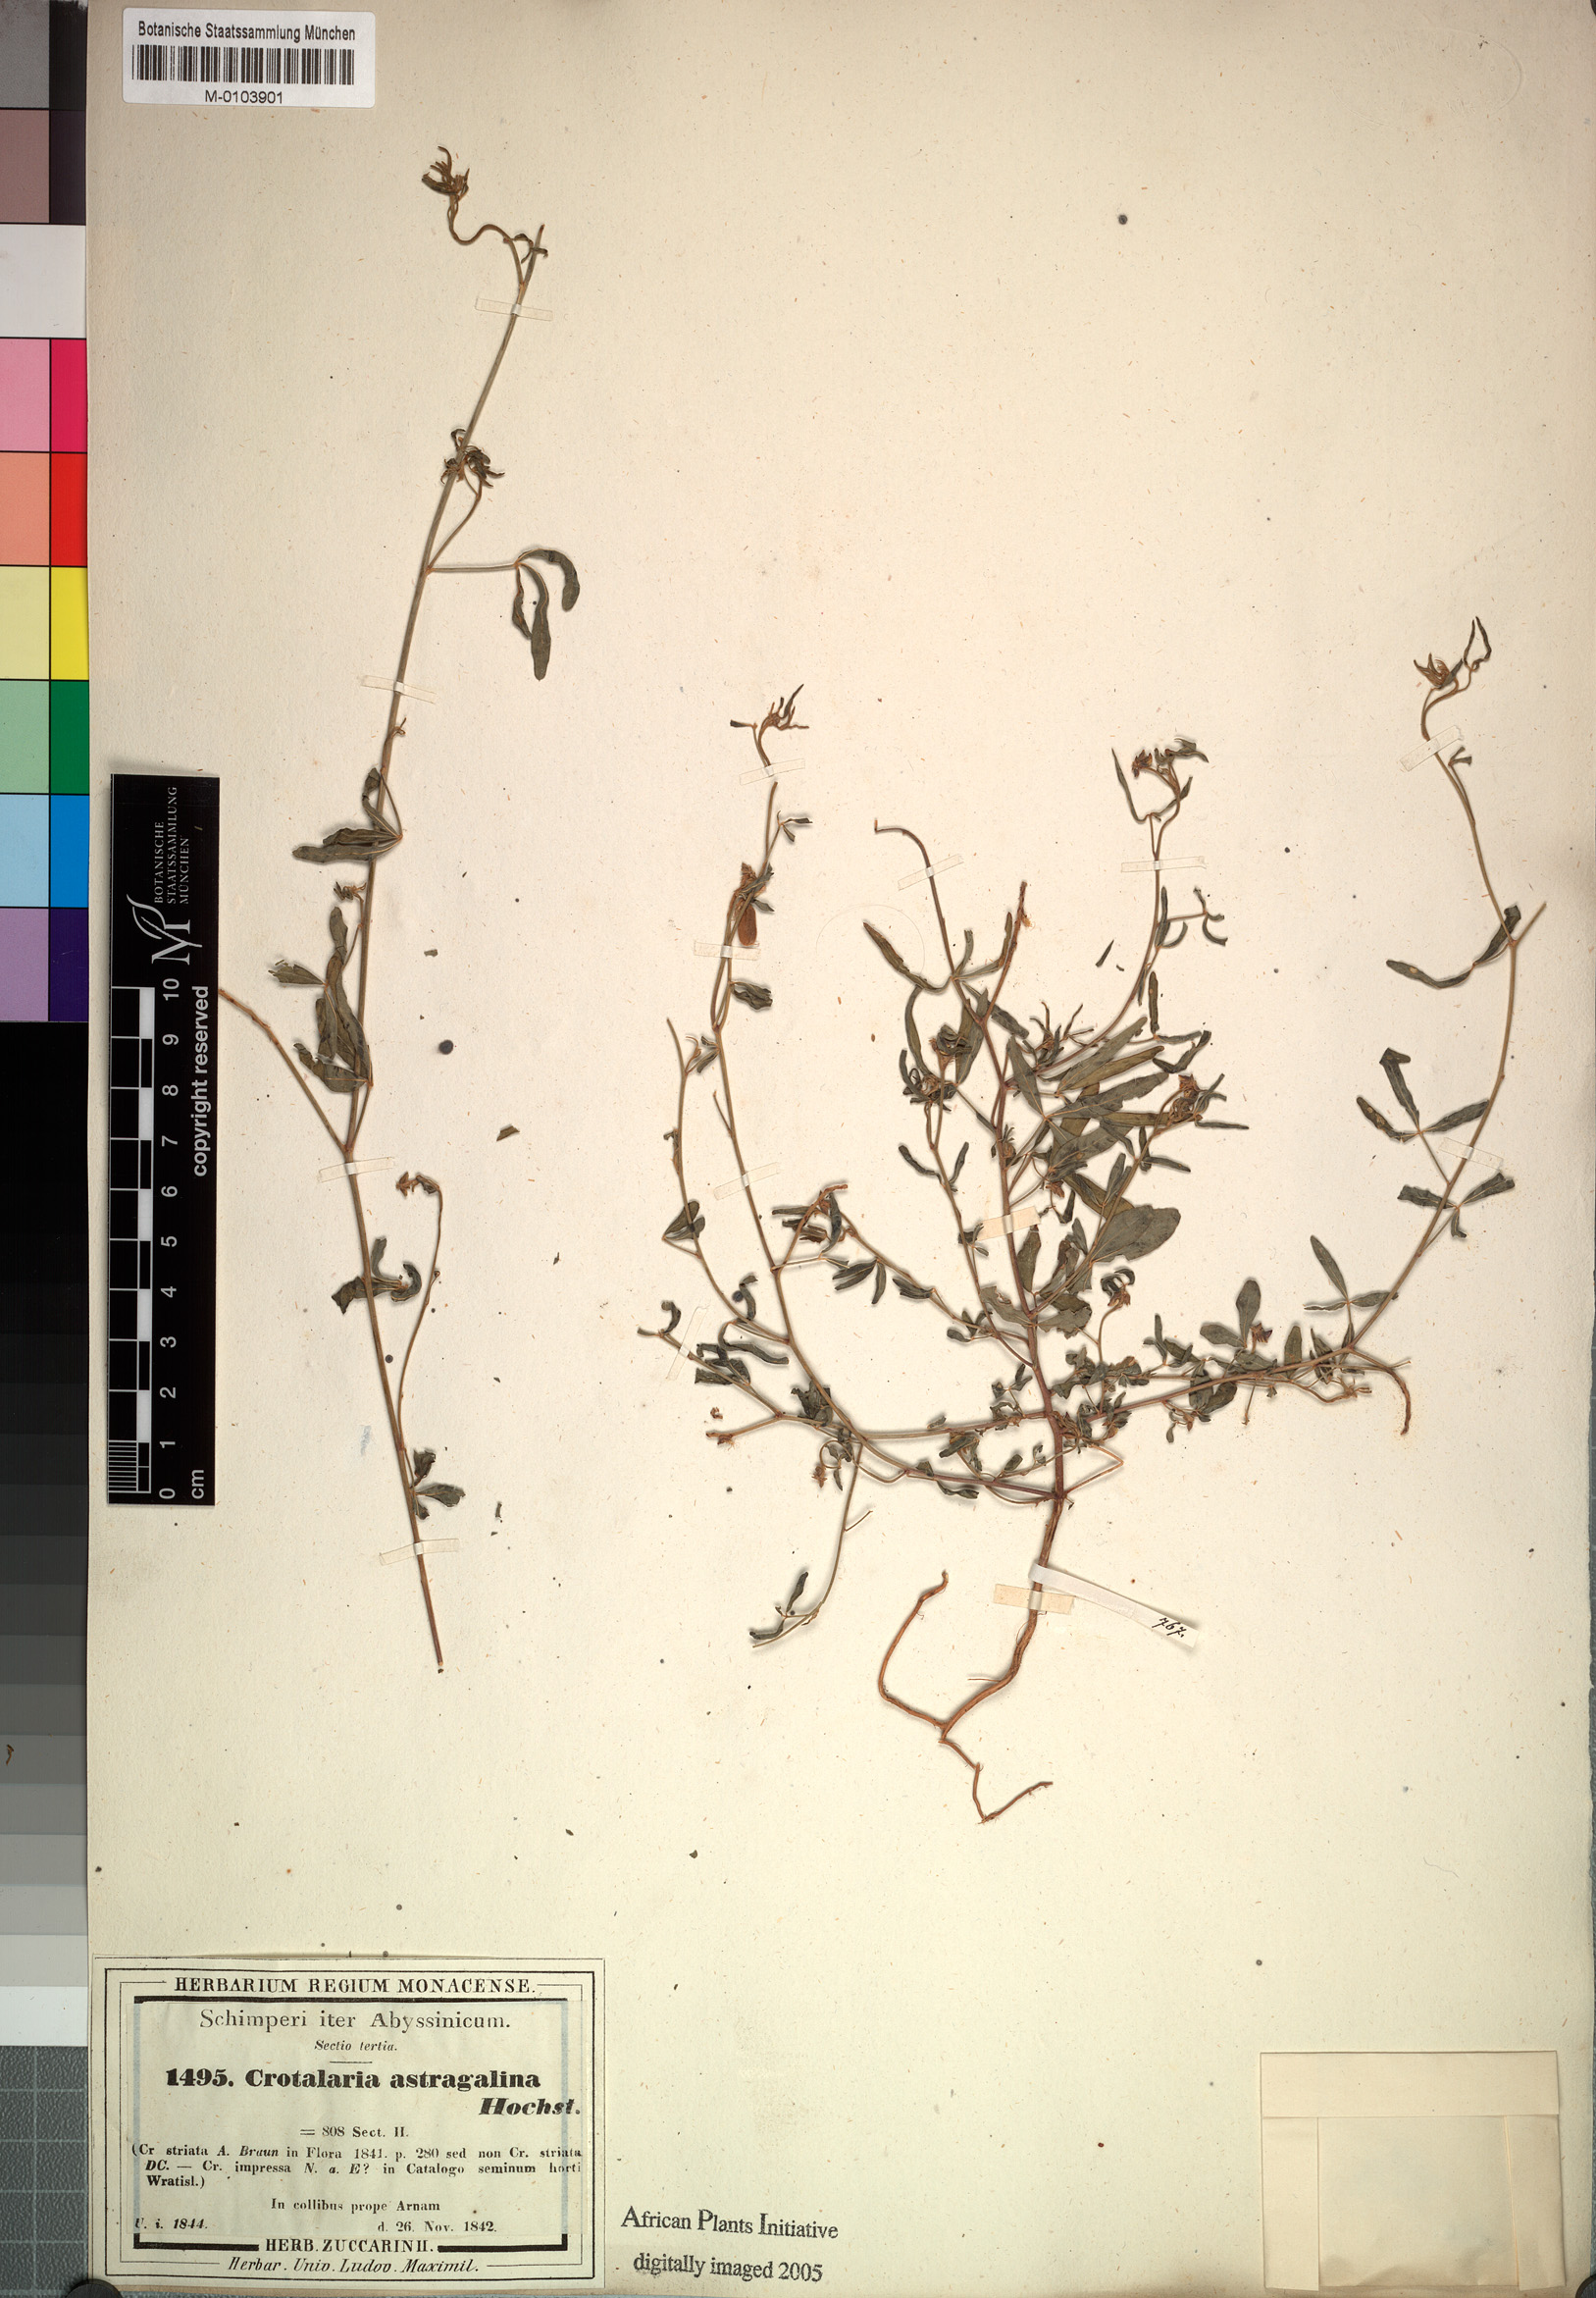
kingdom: Plantae
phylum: Tracheophyta
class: Magnoliopsida
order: Fabales
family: Fabaceae
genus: Crotalaria
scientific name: Crotalaria impressa
